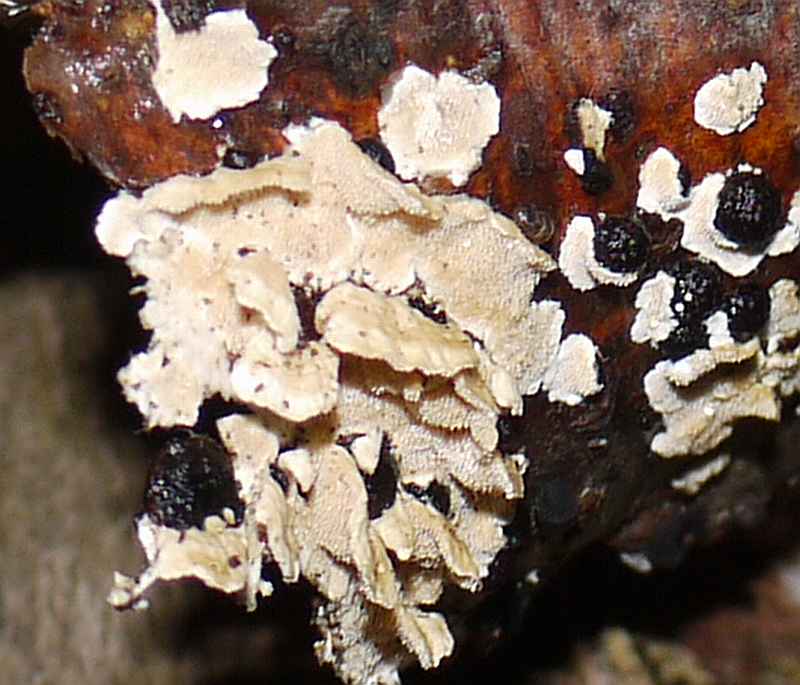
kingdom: Fungi
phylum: Basidiomycota
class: Agaricomycetes
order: Polyporales
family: Steccherinaceae
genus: Steccherinum
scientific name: Steccherinum ochraceum
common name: almindelig skønpig
